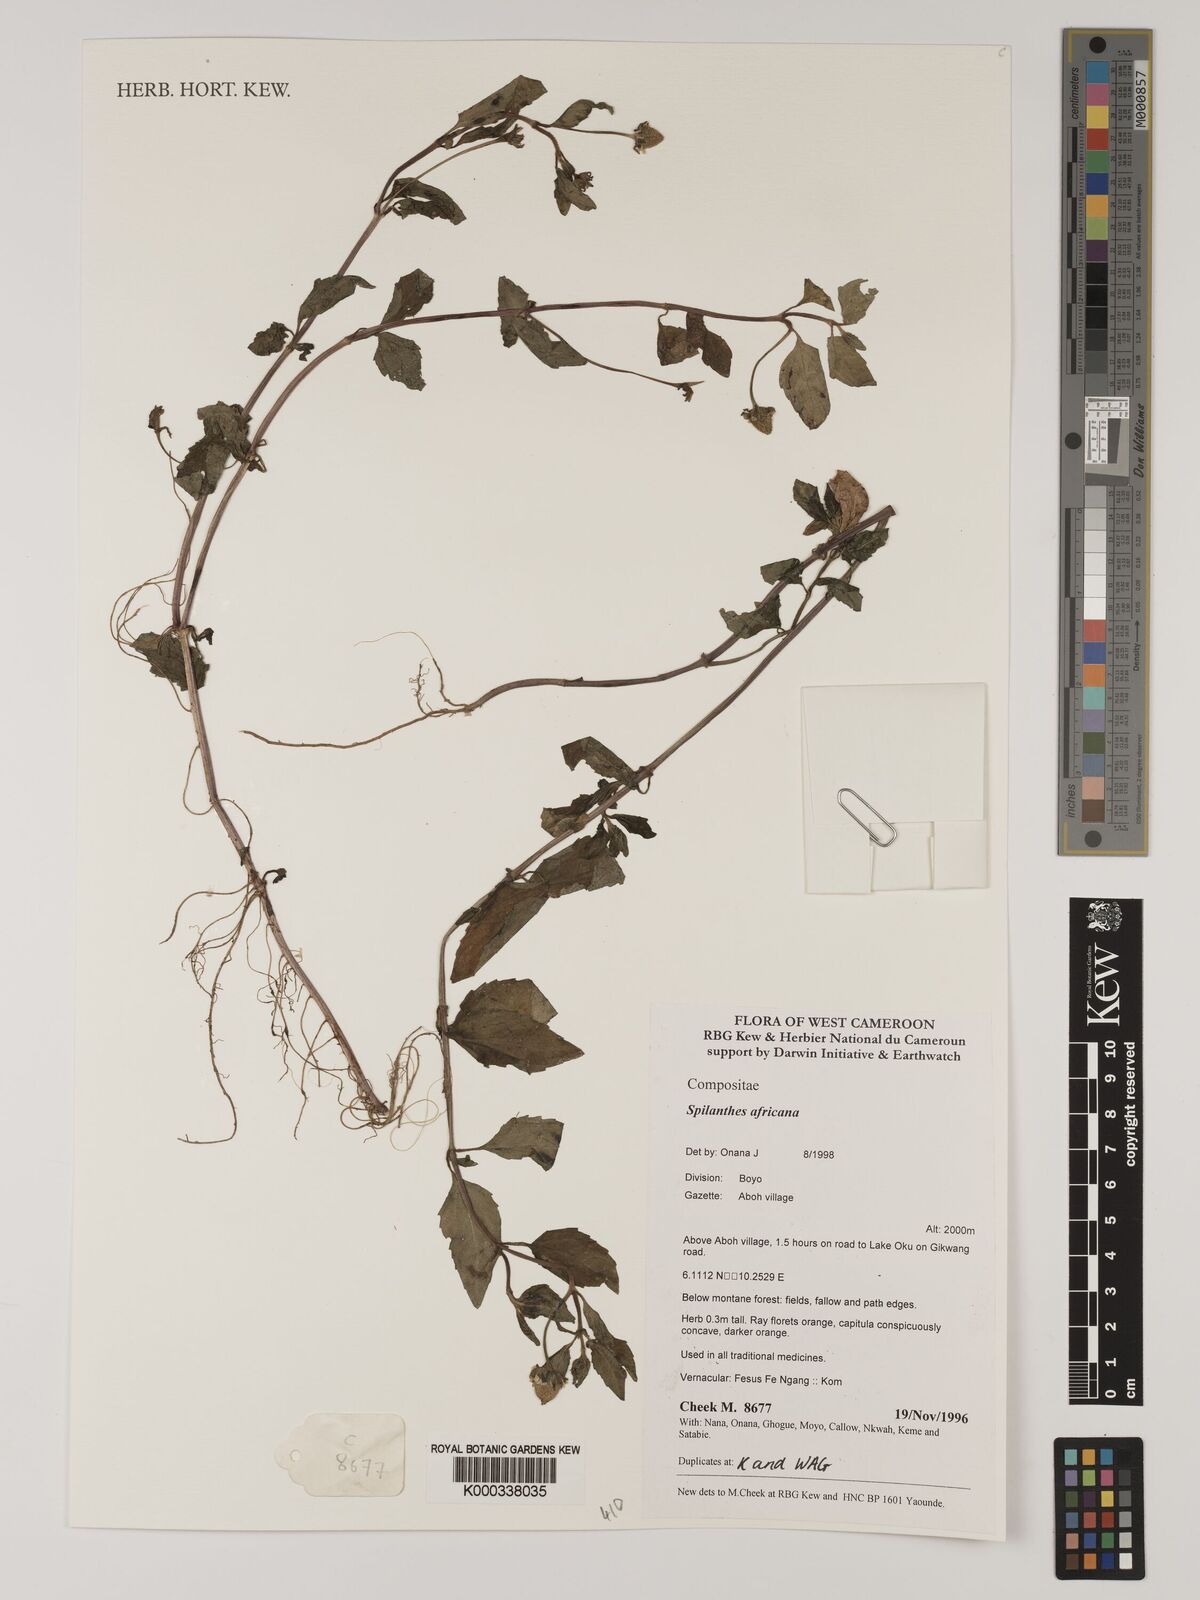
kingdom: Plantae
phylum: Tracheophyta
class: Magnoliopsida
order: Asterales
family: Asteraceae
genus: Acmella
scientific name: Acmella caulirhiza
